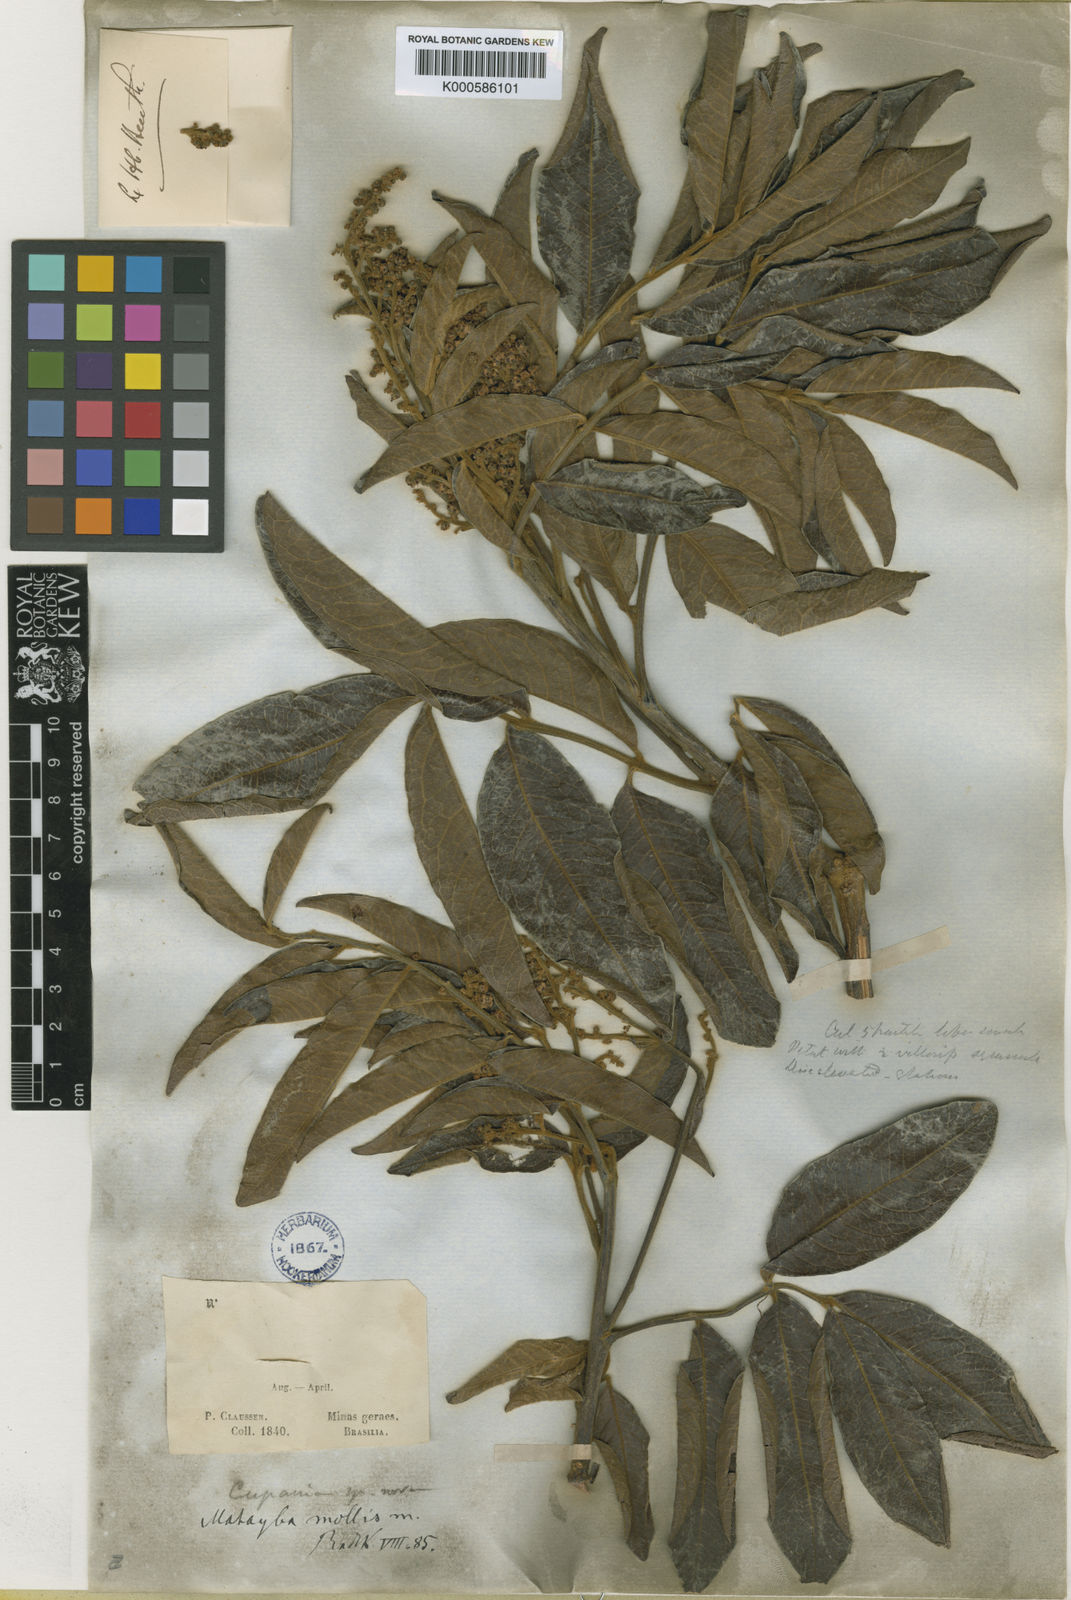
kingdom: Plantae
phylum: Tracheophyta
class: Magnoliopsida
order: Sapindales
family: Sapindaceae
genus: Matayba
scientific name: Matayba mollis
